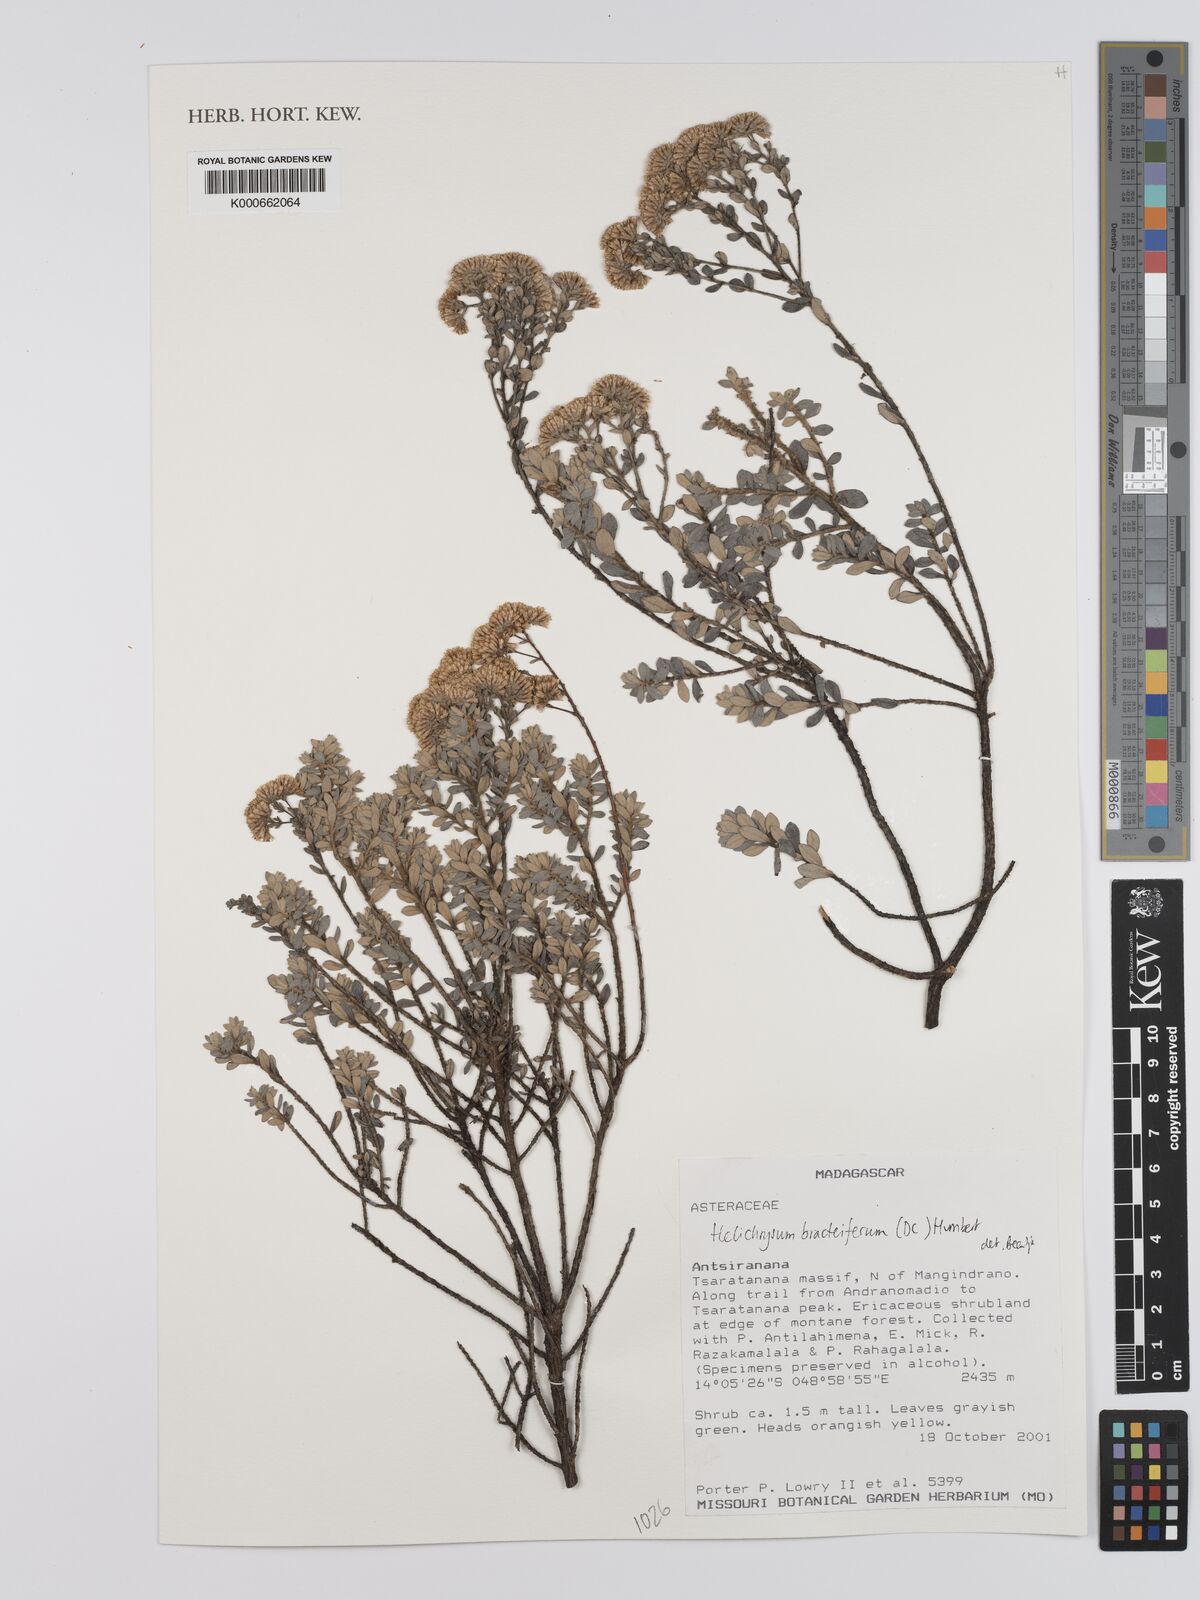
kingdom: Plantae
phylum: Tracheophyta
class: Magnoliopsida
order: Asterales
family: Asteraceae
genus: Helichrysum
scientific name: Helichrysum bracteiferum
